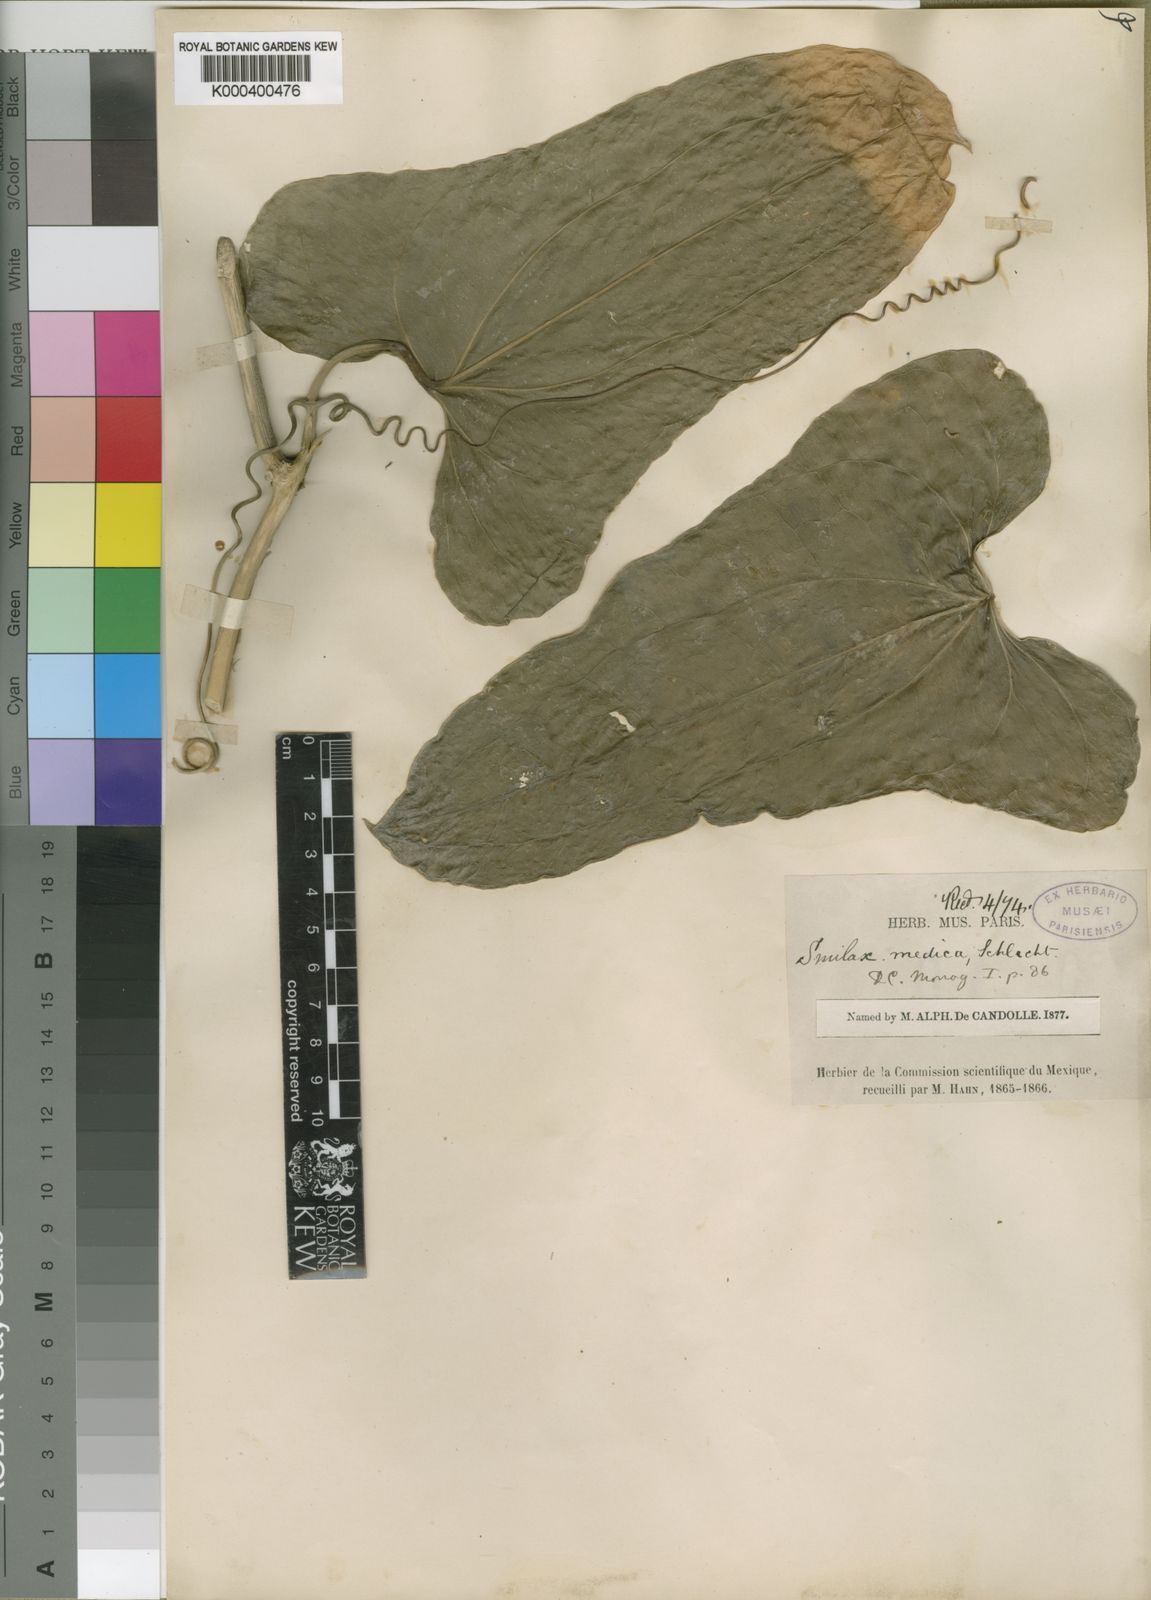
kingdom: Plantae
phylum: Tracheophyta
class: Liliopsida
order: Liliales
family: Smilacaceae
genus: Smilax
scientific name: Smilax aristolochiifolia
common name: Sarsaparilla
